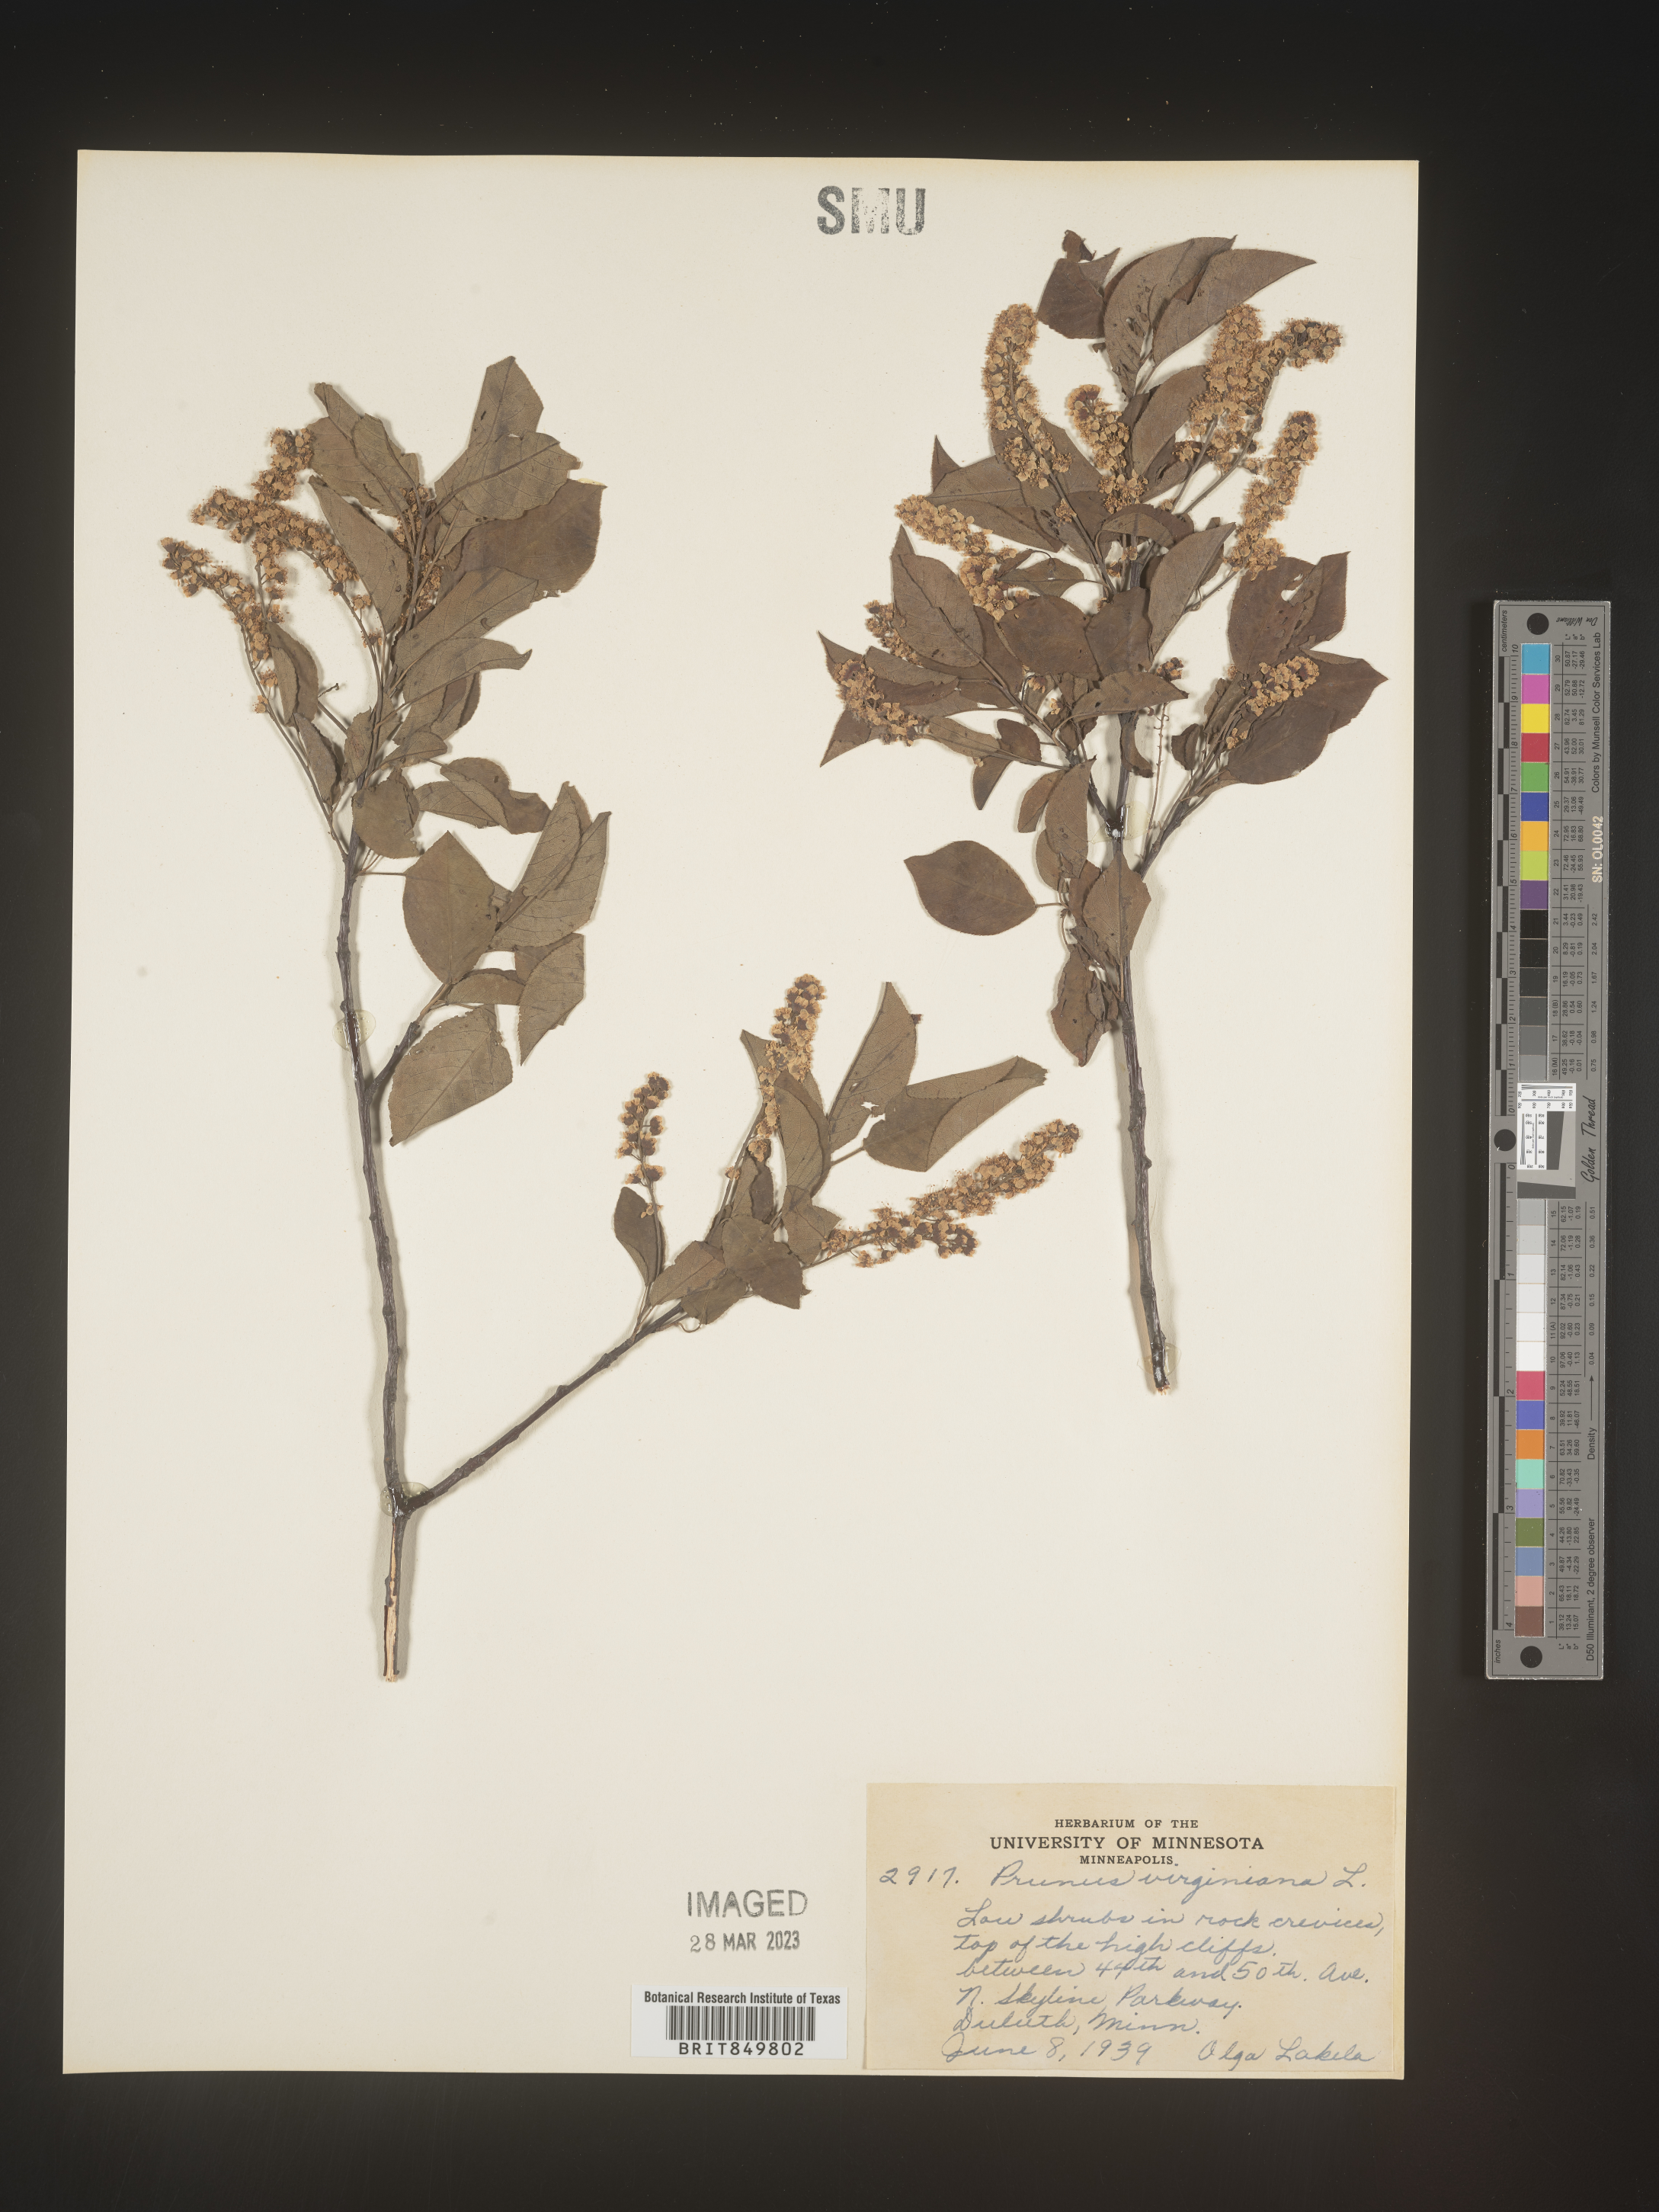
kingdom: Plantae
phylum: Tracheophyta
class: Magnoliopsida
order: Rosales
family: Rosaceae
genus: Prunus
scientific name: Prunus virginiana
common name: Chokecherry
